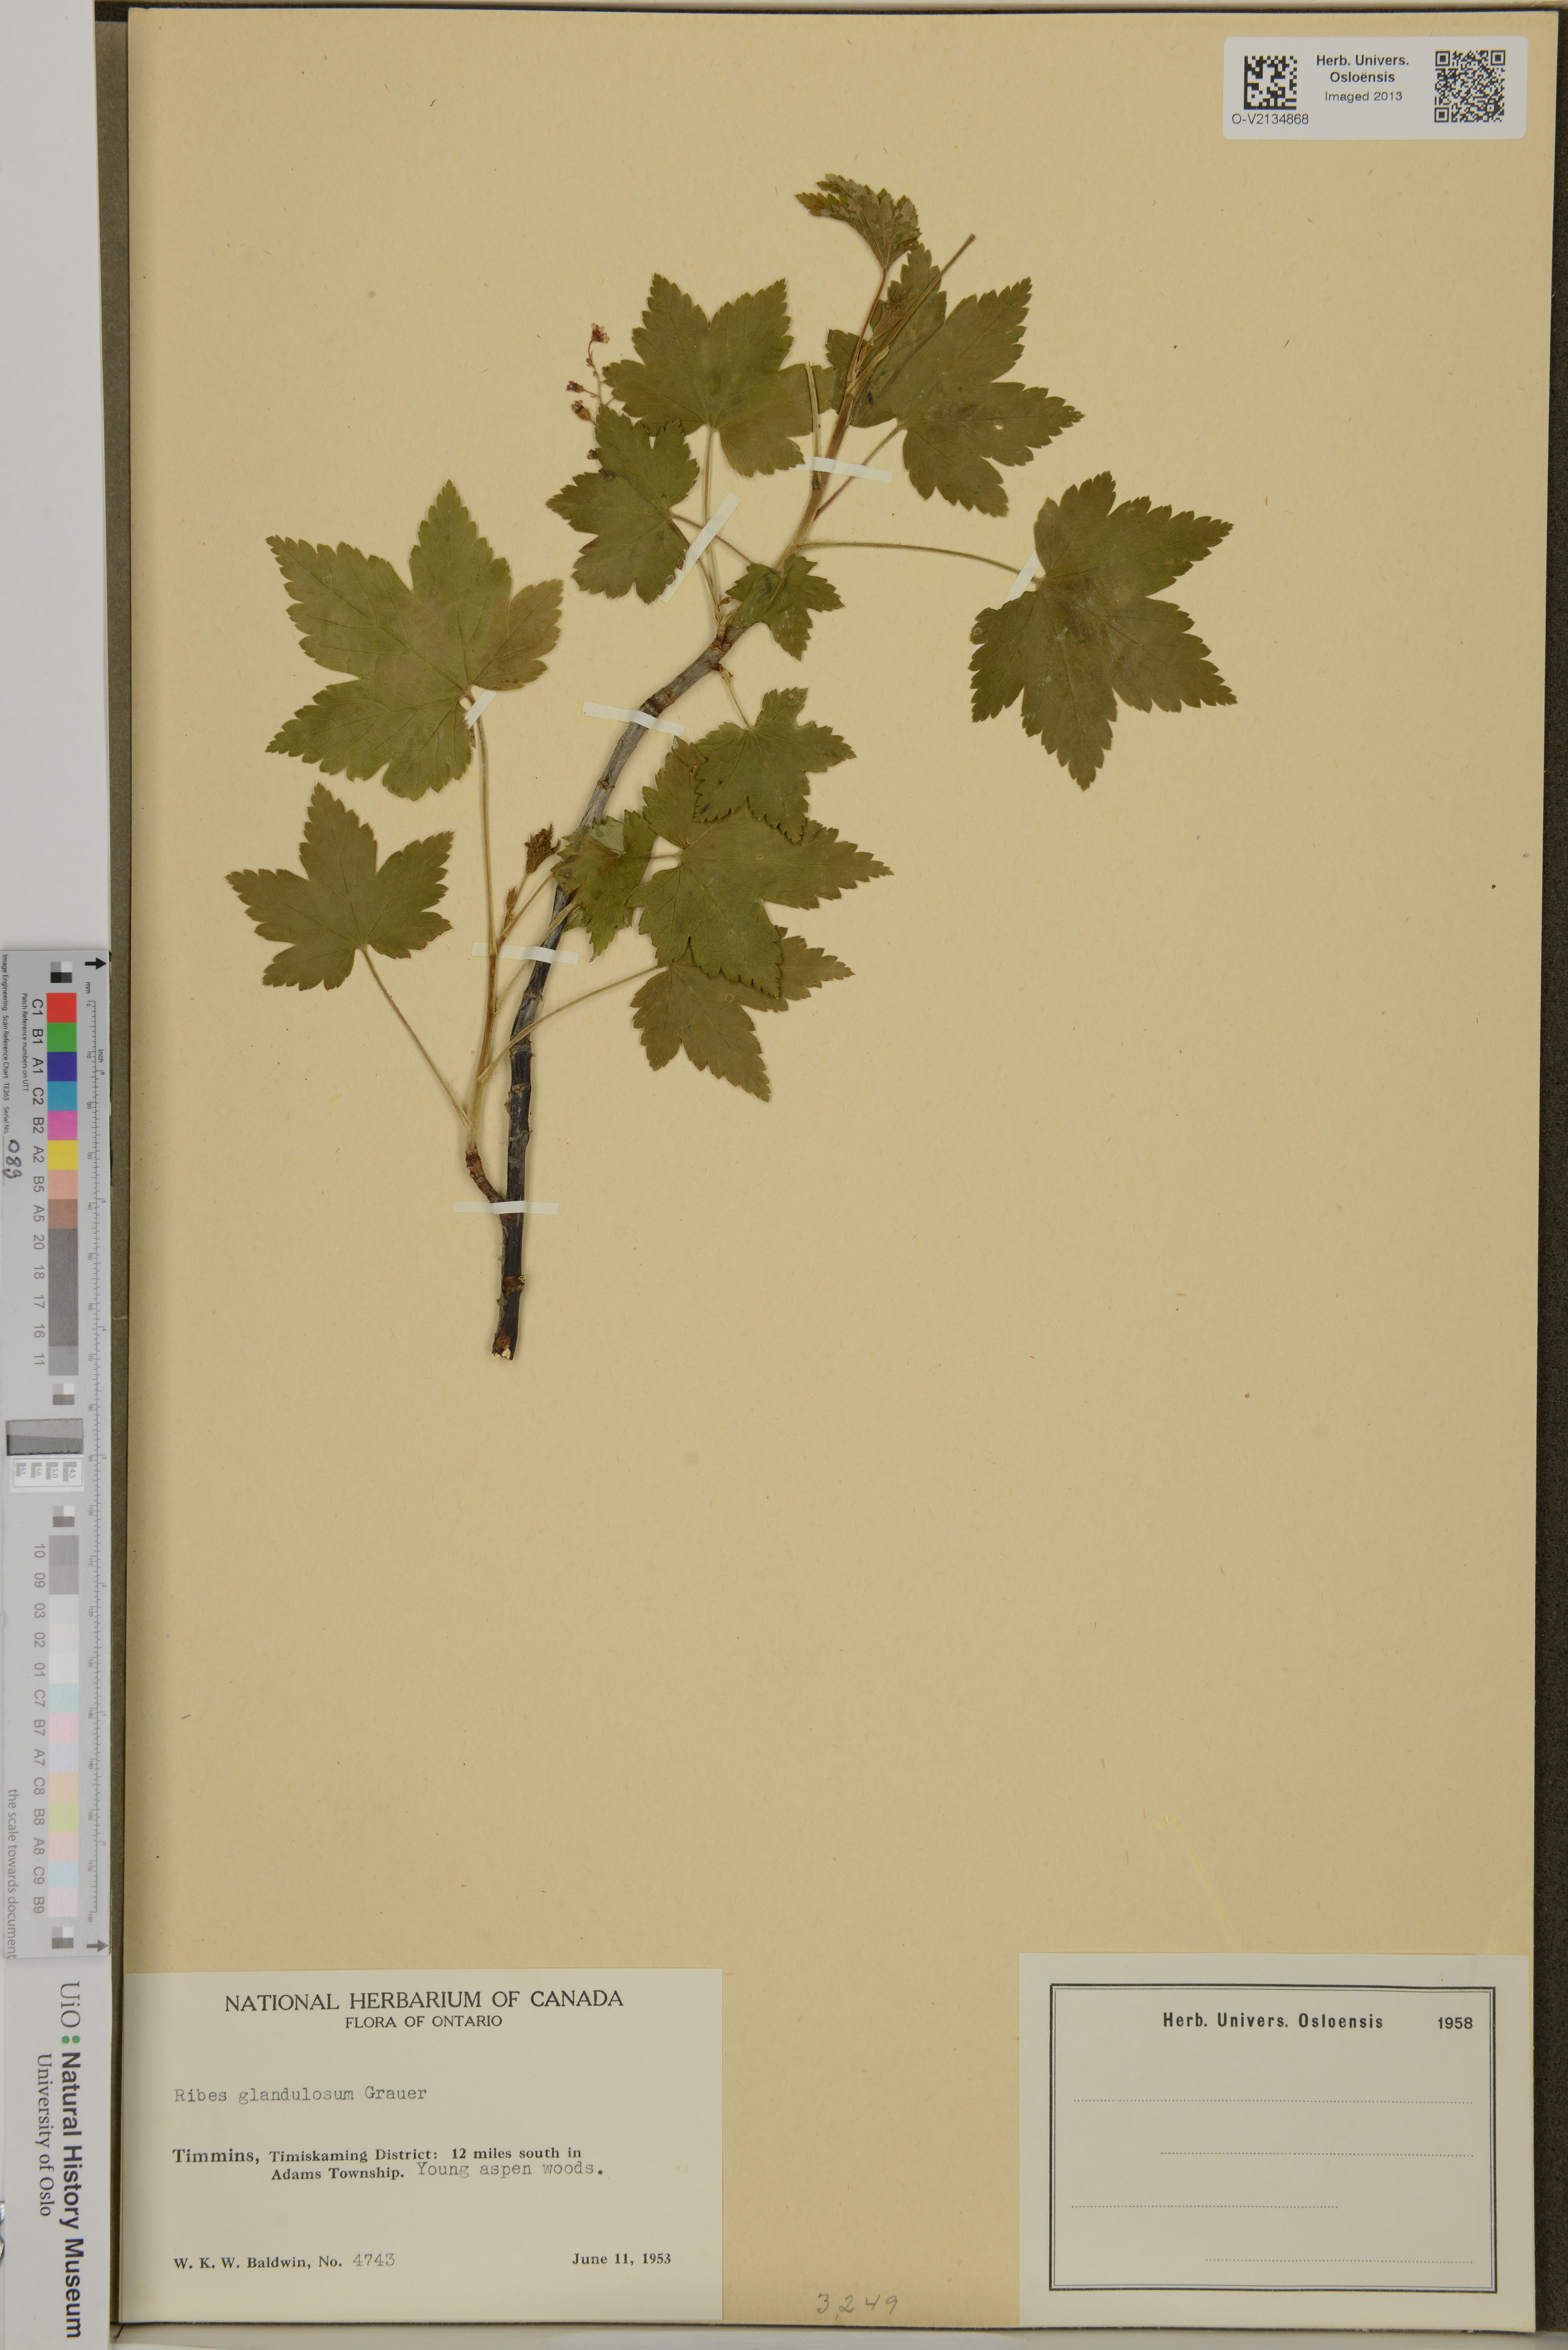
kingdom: Plantae
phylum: Tracheophyta
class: Magnoliopsida
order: Saxifragales
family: Grossulariaceae
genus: Ribes
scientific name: Ribes glandulosum
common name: Skunk currant
